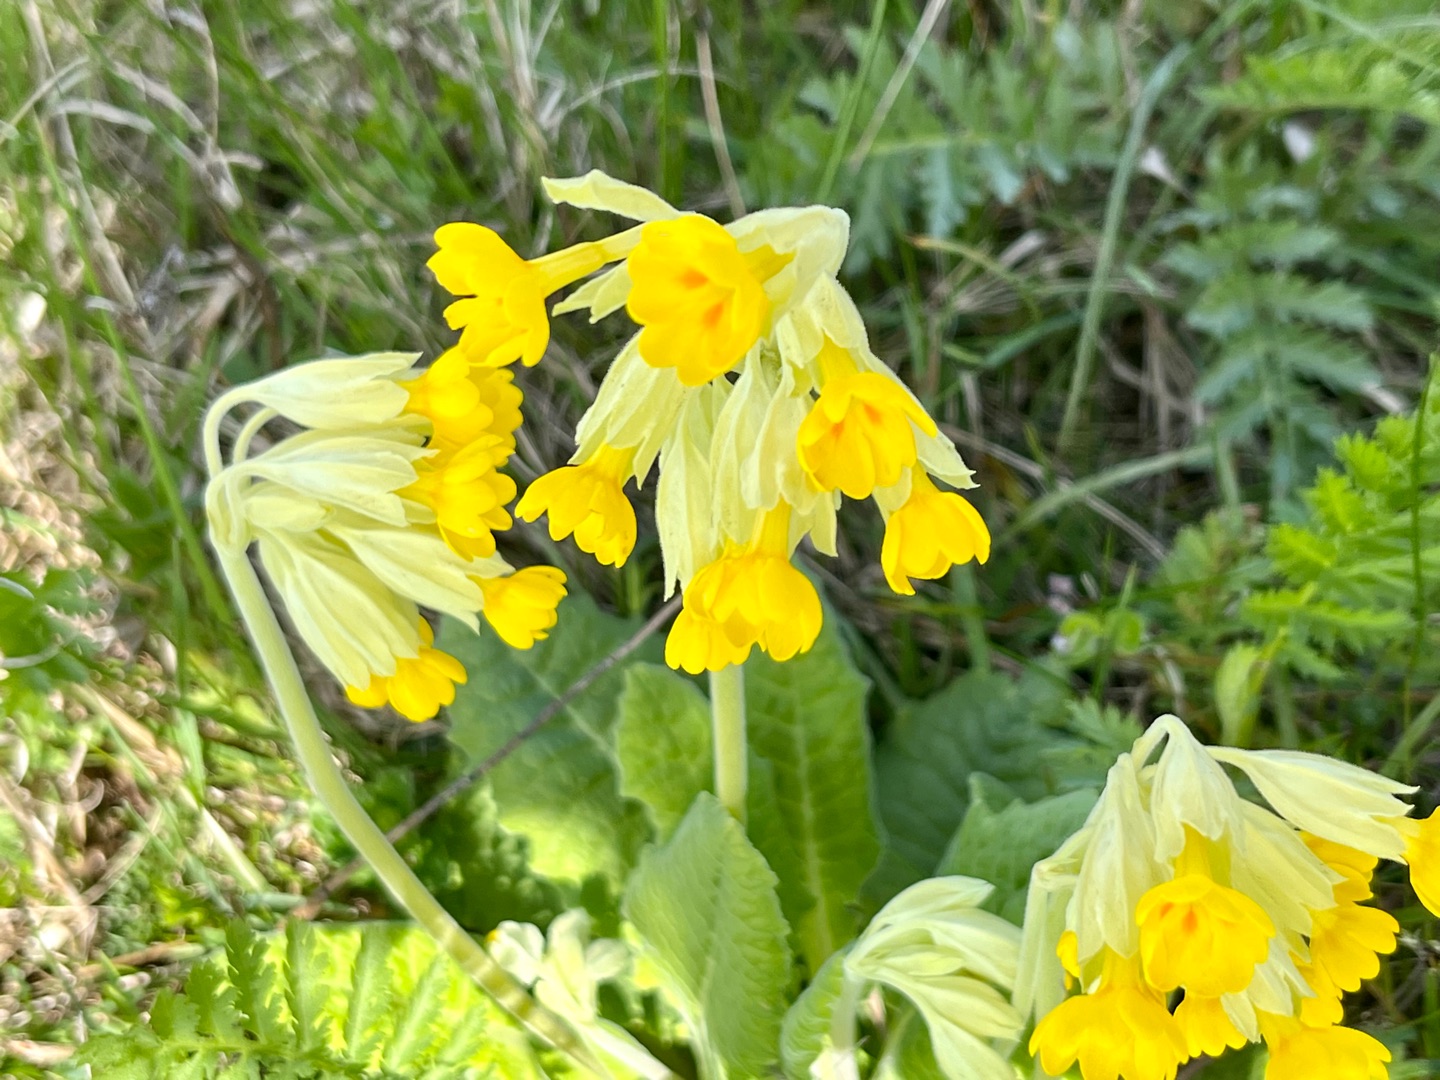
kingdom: Plantae
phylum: Tracheophyta
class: Magnoliopsida
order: Ericales
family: Primulaceae
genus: Primula
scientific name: Primula veris
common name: Hulkravet kodriver
